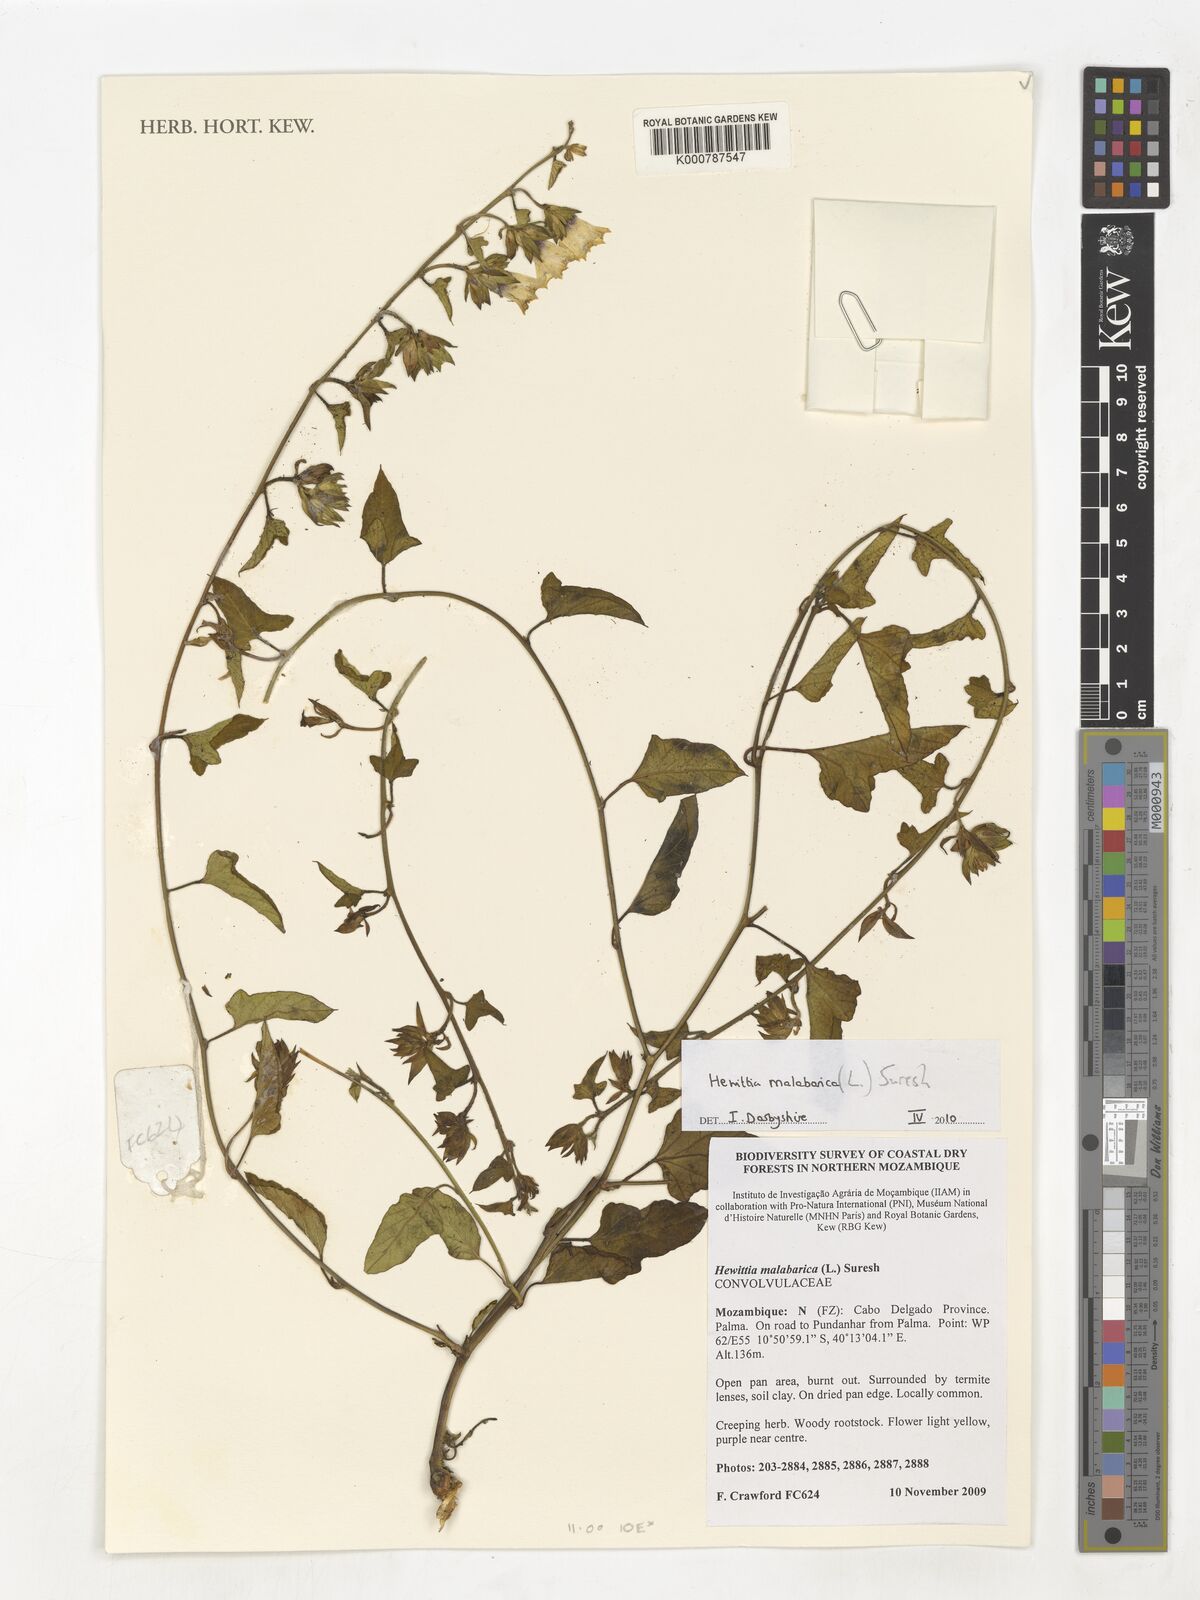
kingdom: Plantae
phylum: Tracheophyta
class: Liliopsida
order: Alismatales
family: Araceae
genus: Burttianthus
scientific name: Burttianthus caulescens
